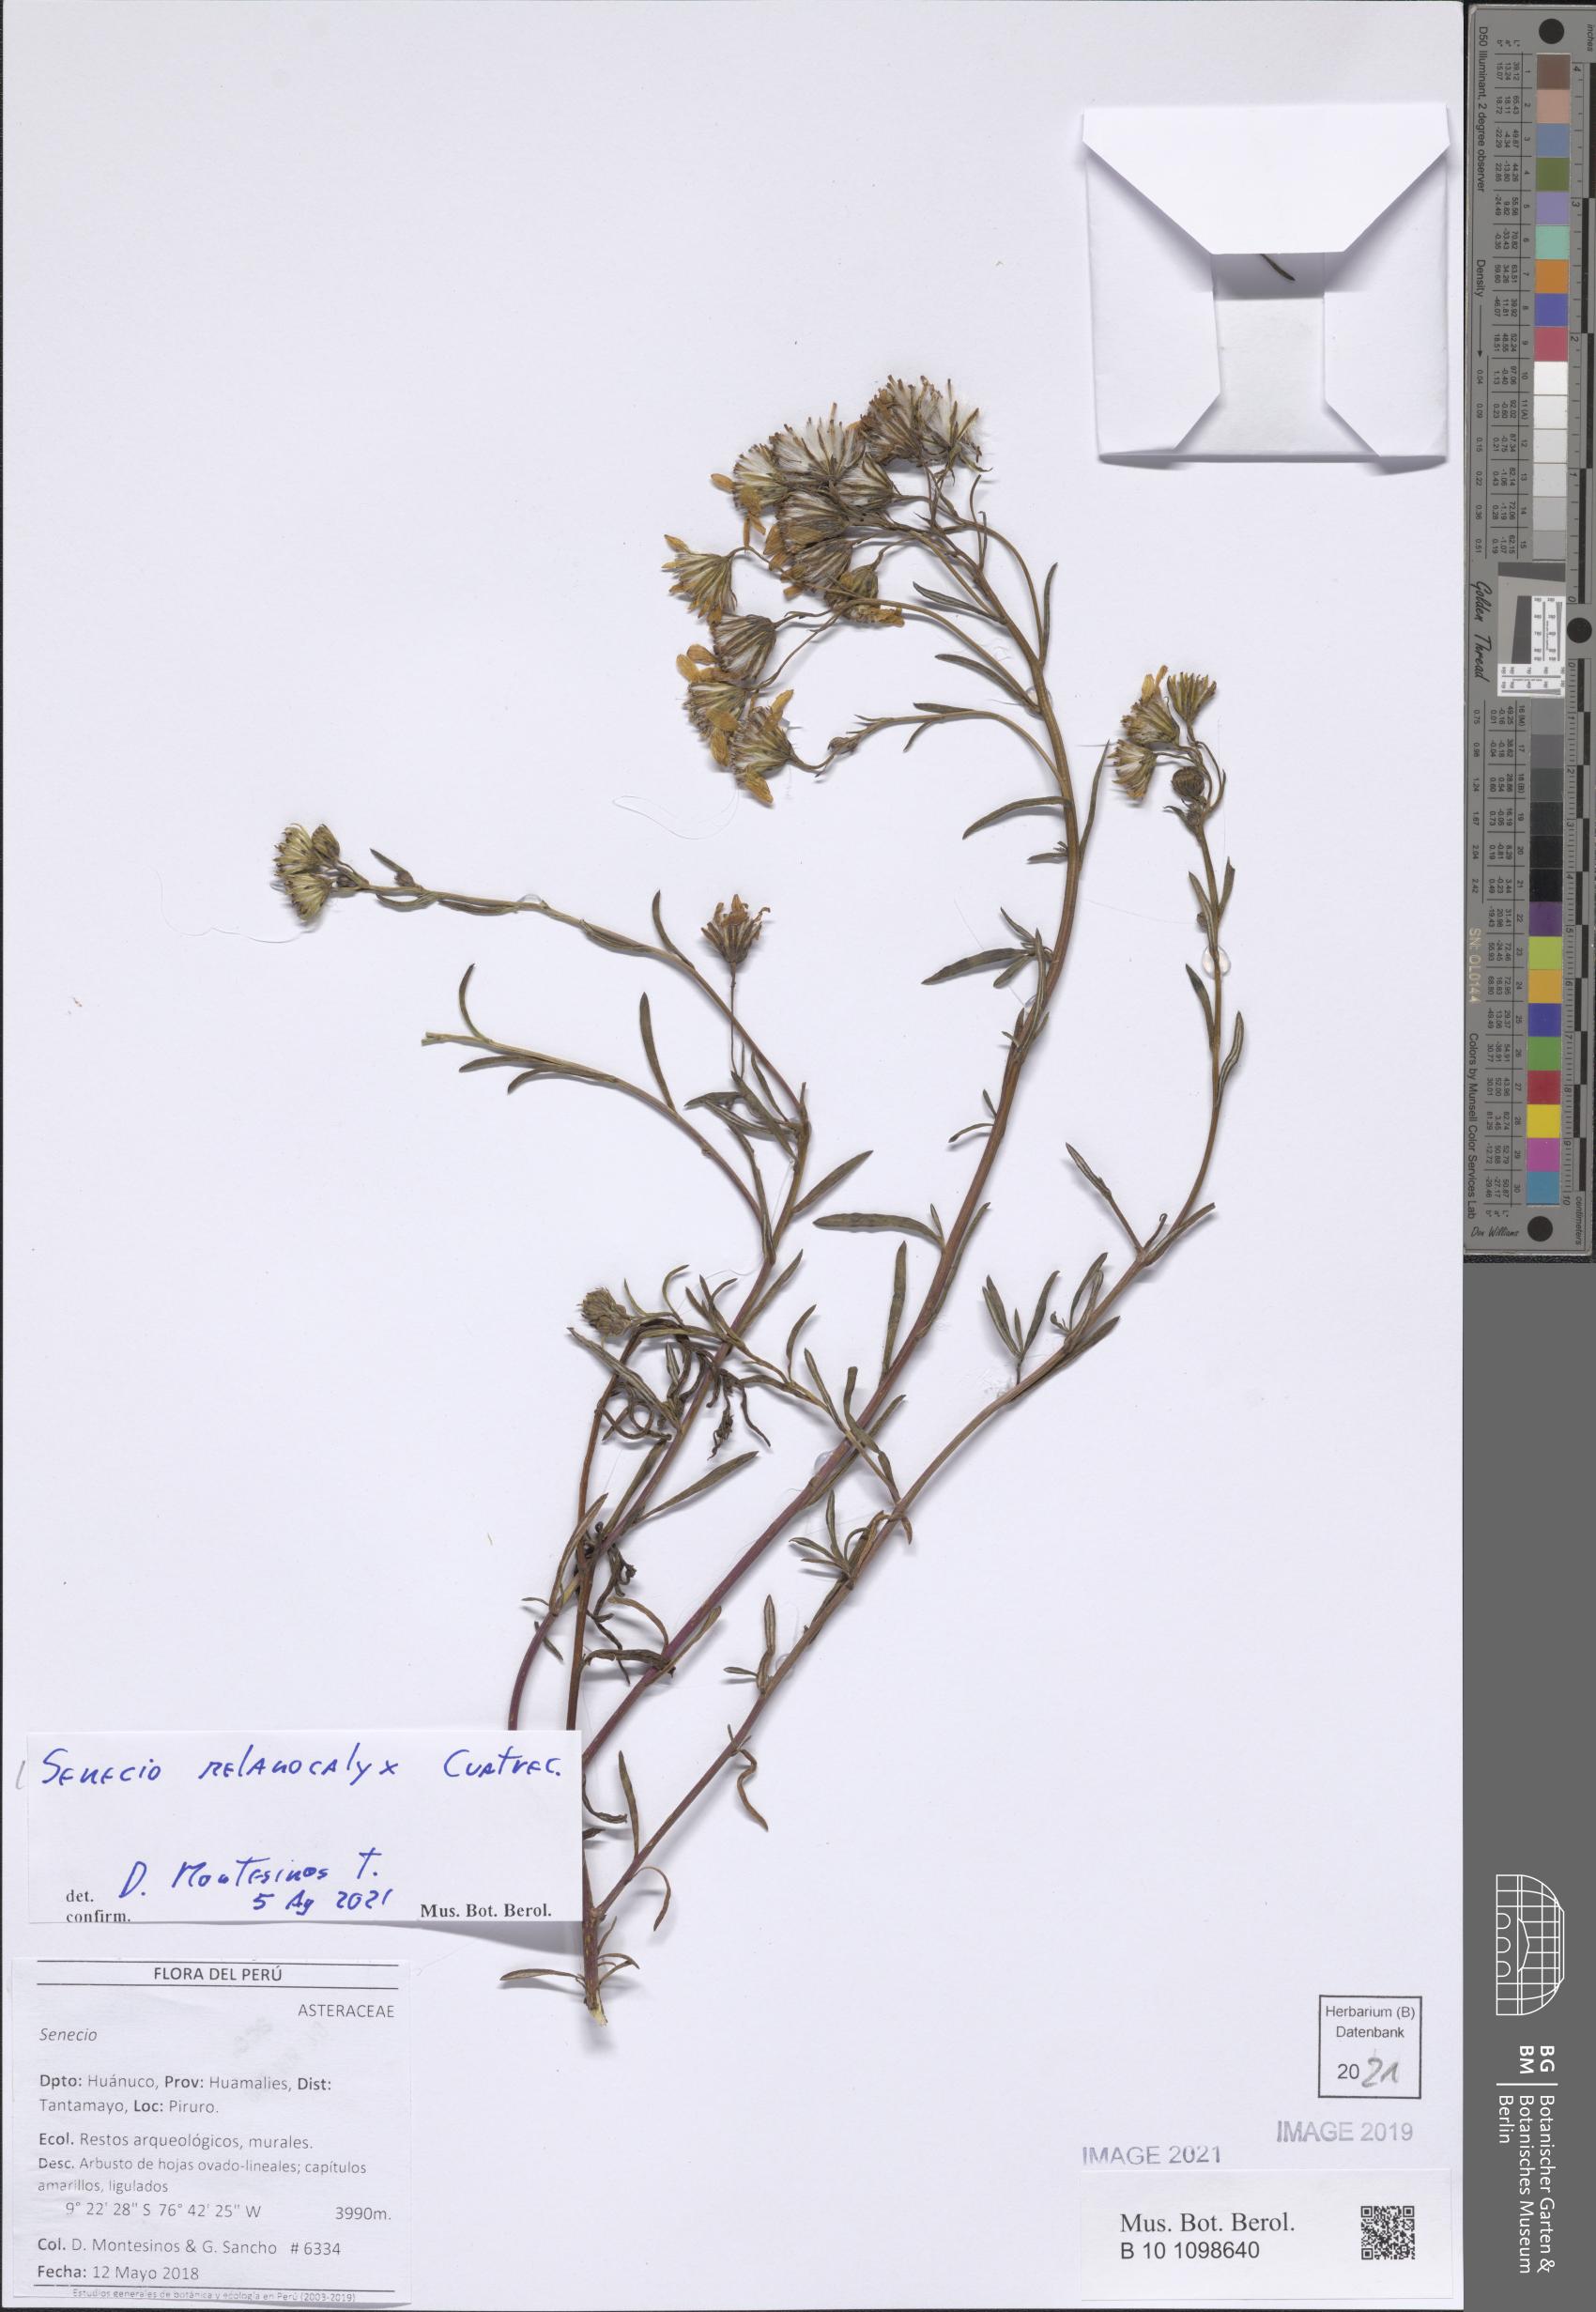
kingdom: Plantae
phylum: Tracheophyta
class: Magnoliopsida
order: Asterales
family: Asteraceae
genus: Senecio
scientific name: Senecio melanocalyx
